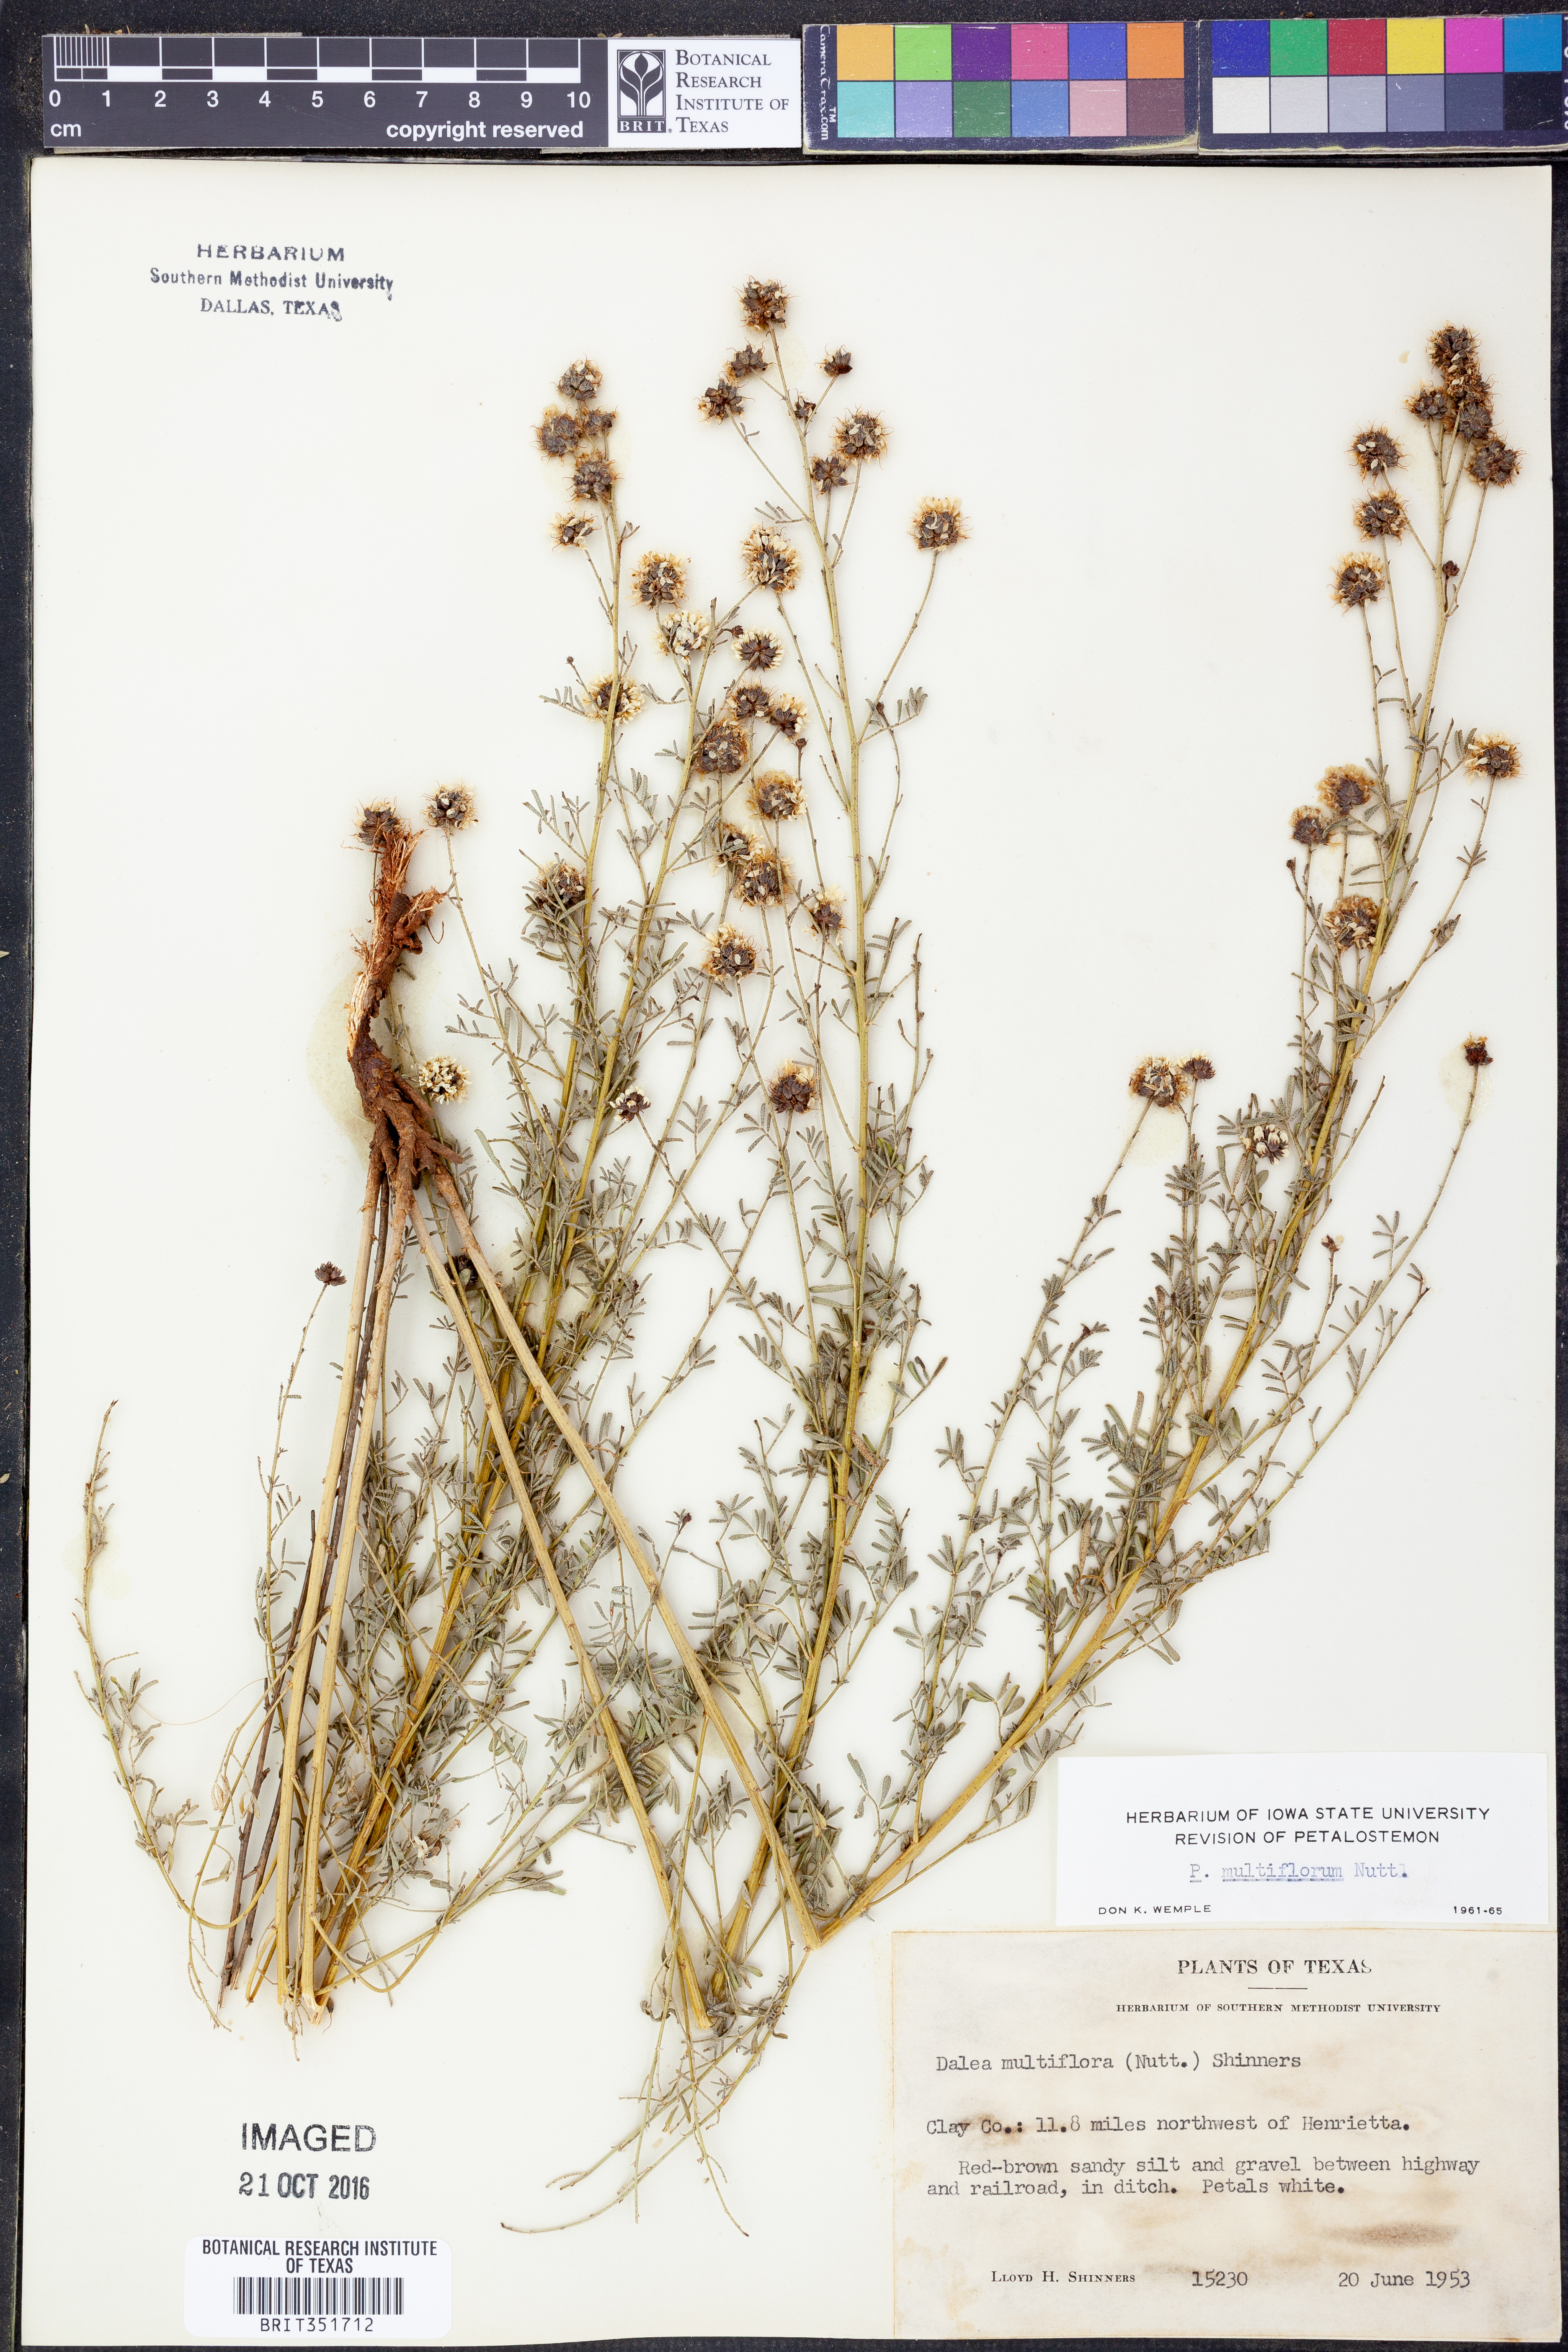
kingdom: Plantae
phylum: Tracheophyta
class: Magnoliopsida
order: Fabales
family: Fabaceae
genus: Dalea
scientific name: Dalea multiflora
